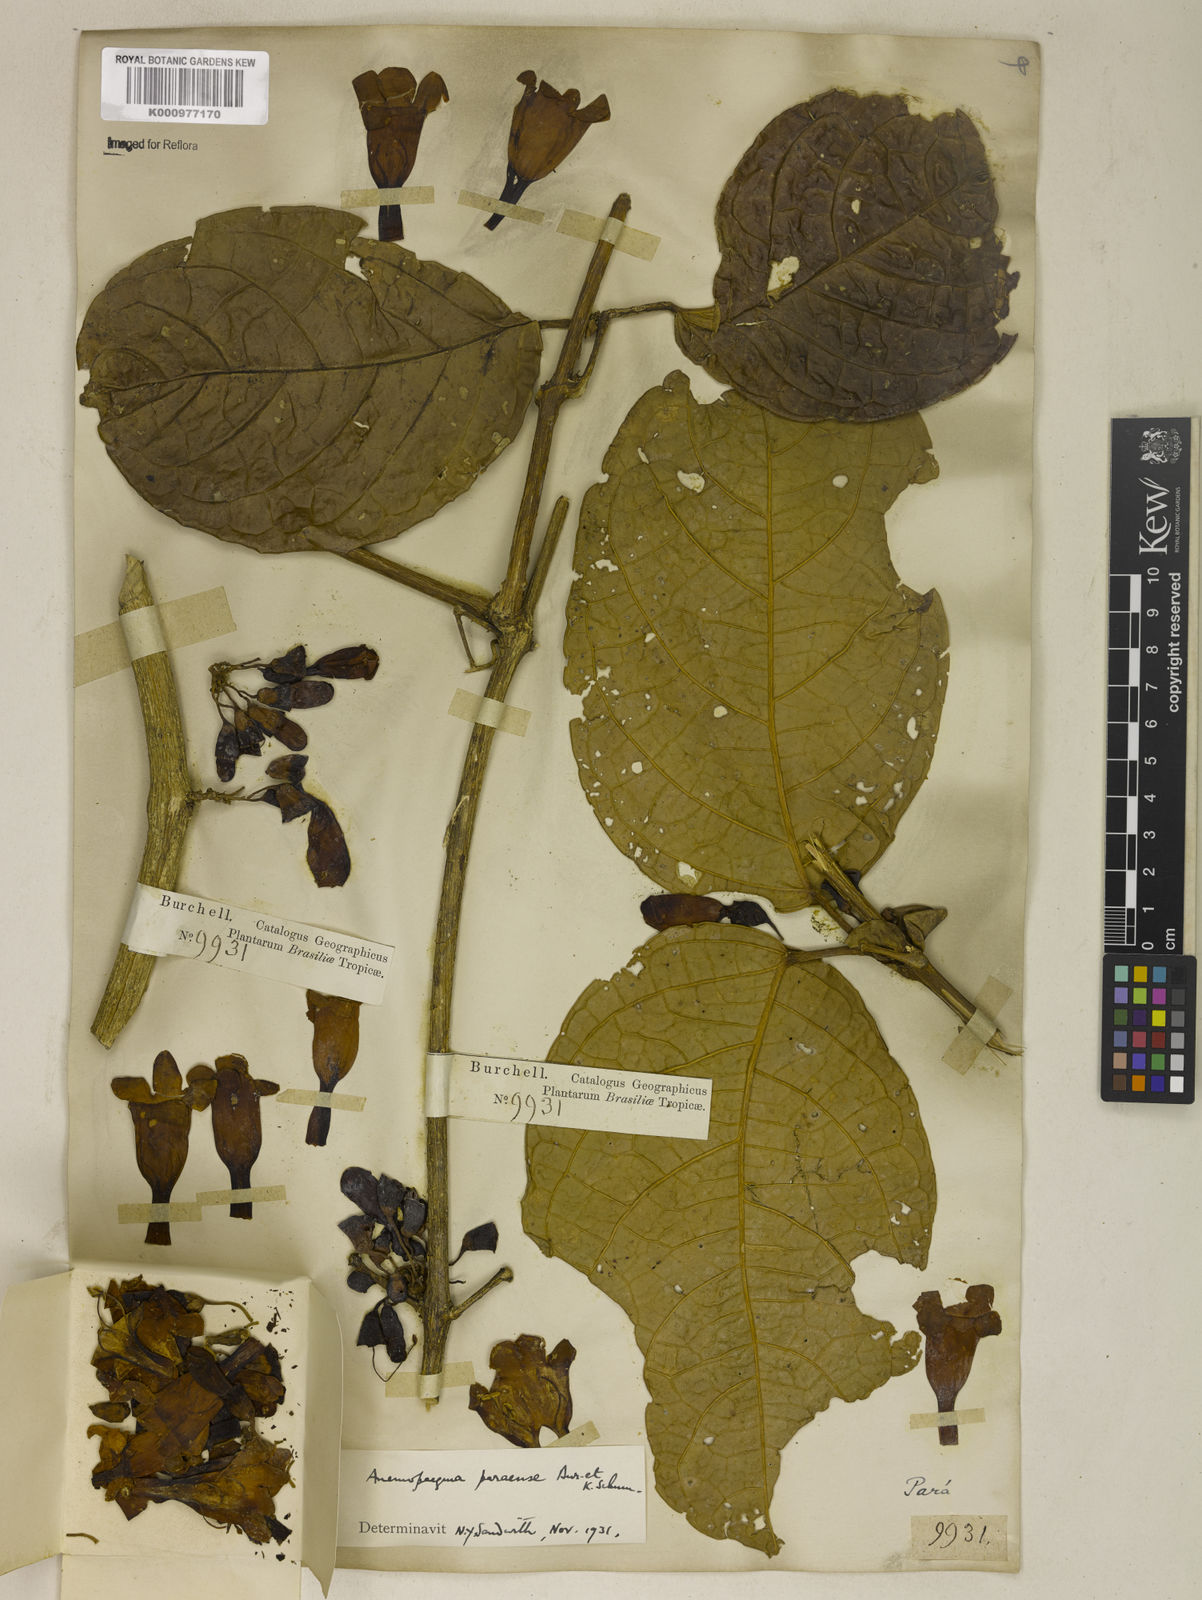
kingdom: Plantae
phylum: Tracheophyta
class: Magnoliopsida
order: Lamiales
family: Bignoniaceae
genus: Anemopaegma
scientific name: Anemopaegma
